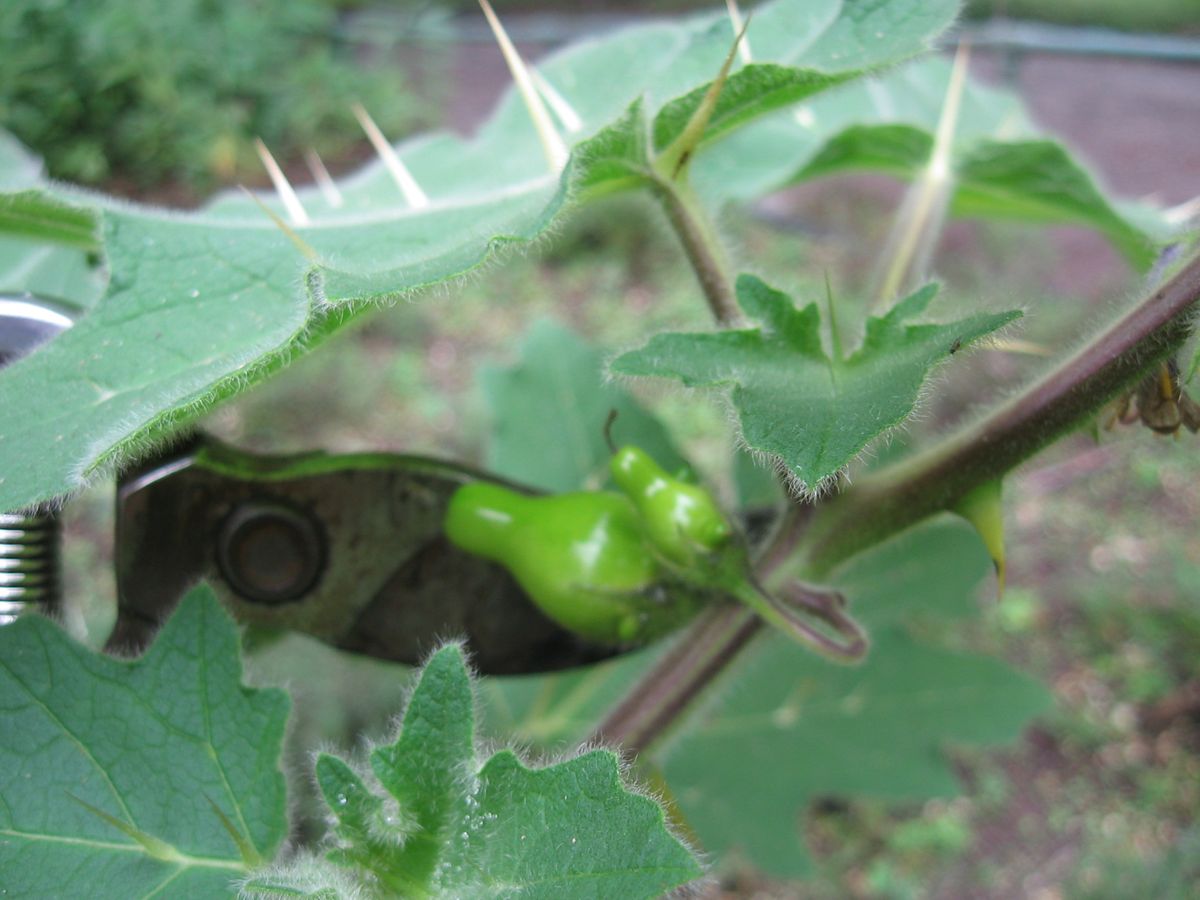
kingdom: Plantae
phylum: Tracheophyta
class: Magnoliopsida
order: Solanales
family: Solanaceae
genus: Solanum
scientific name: Solanum mammosum
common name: Nipple fruit
